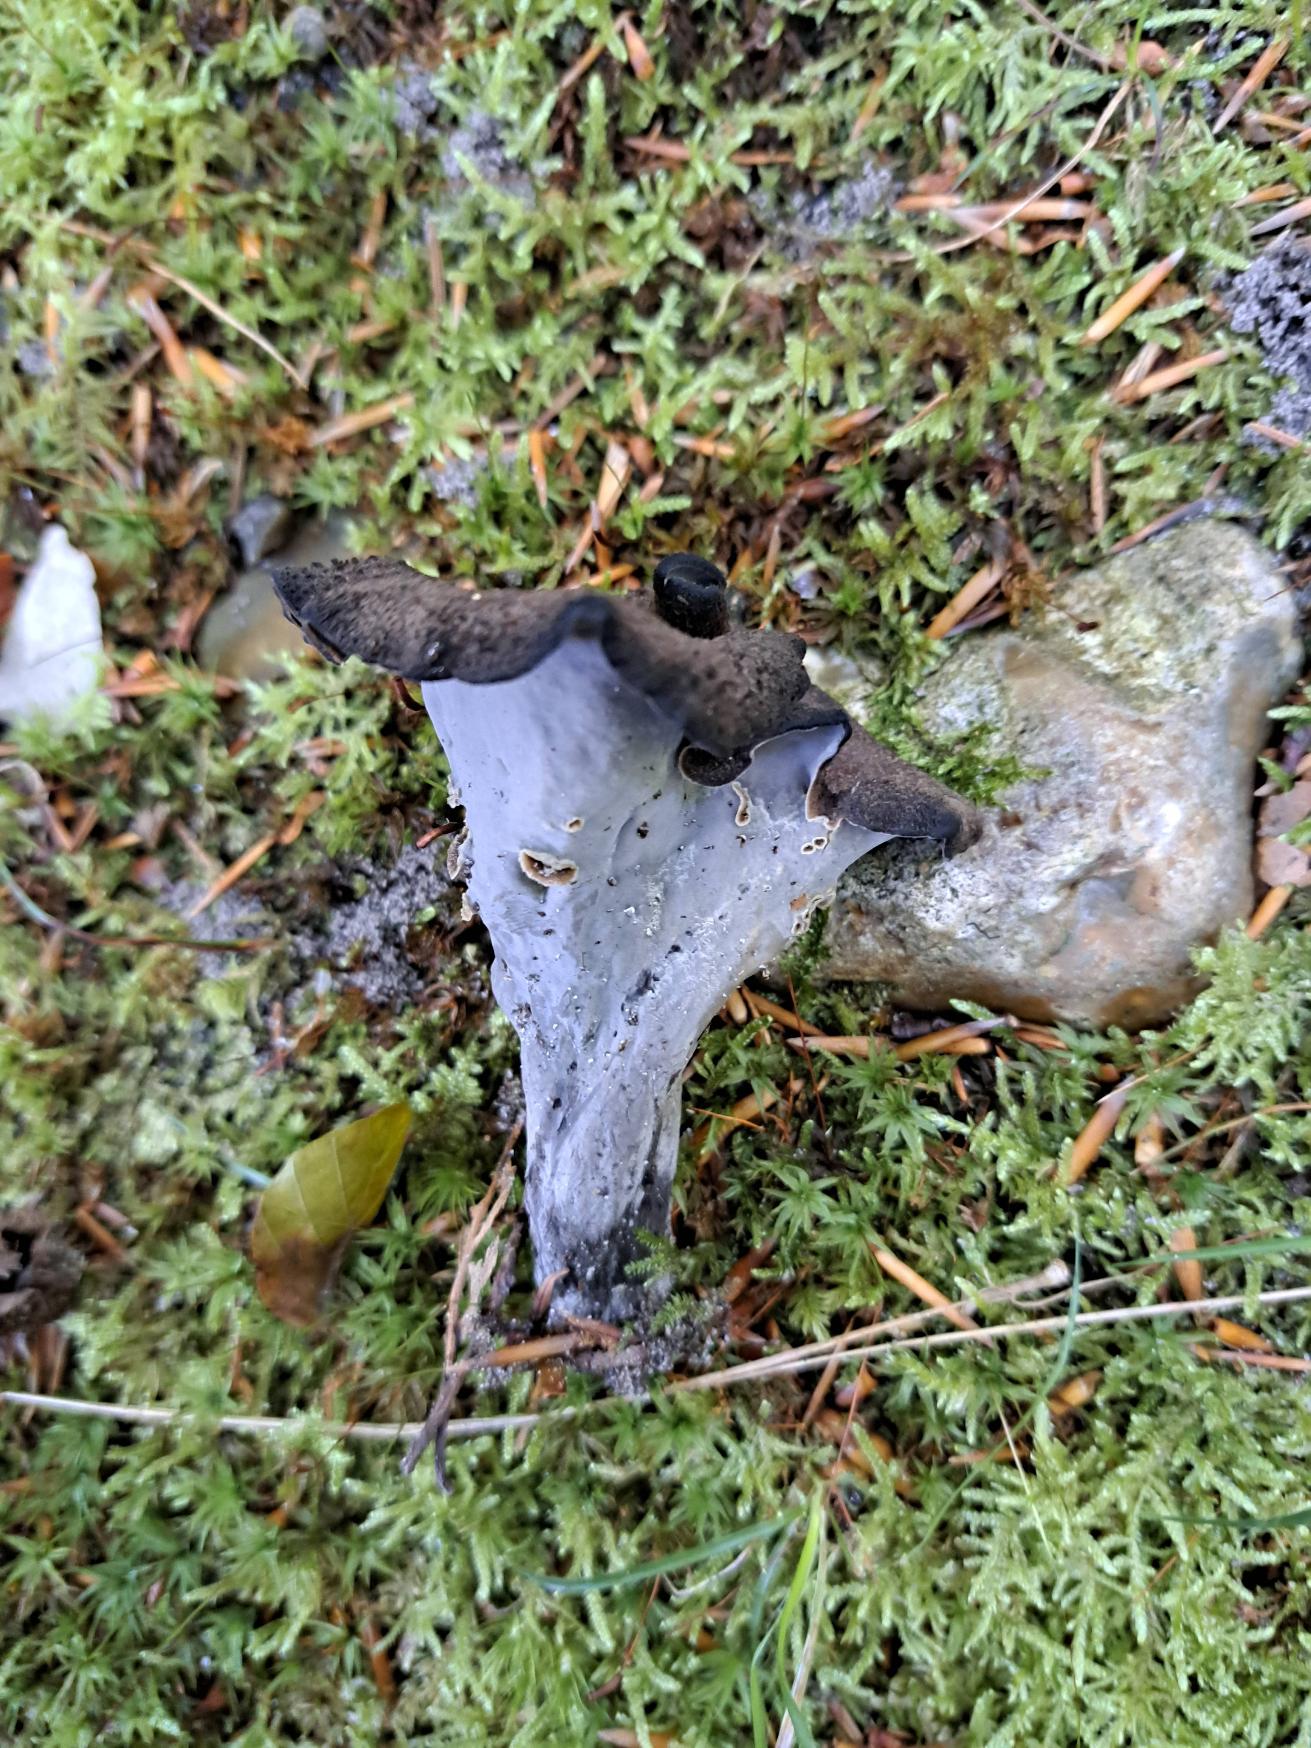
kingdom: Fungi
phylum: Basidiomycota
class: Agaricomycetes
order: Cantharellales
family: Hydnaceae
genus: Craterellus
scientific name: Craterellus cornucopioides
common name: Trompetsvamp
